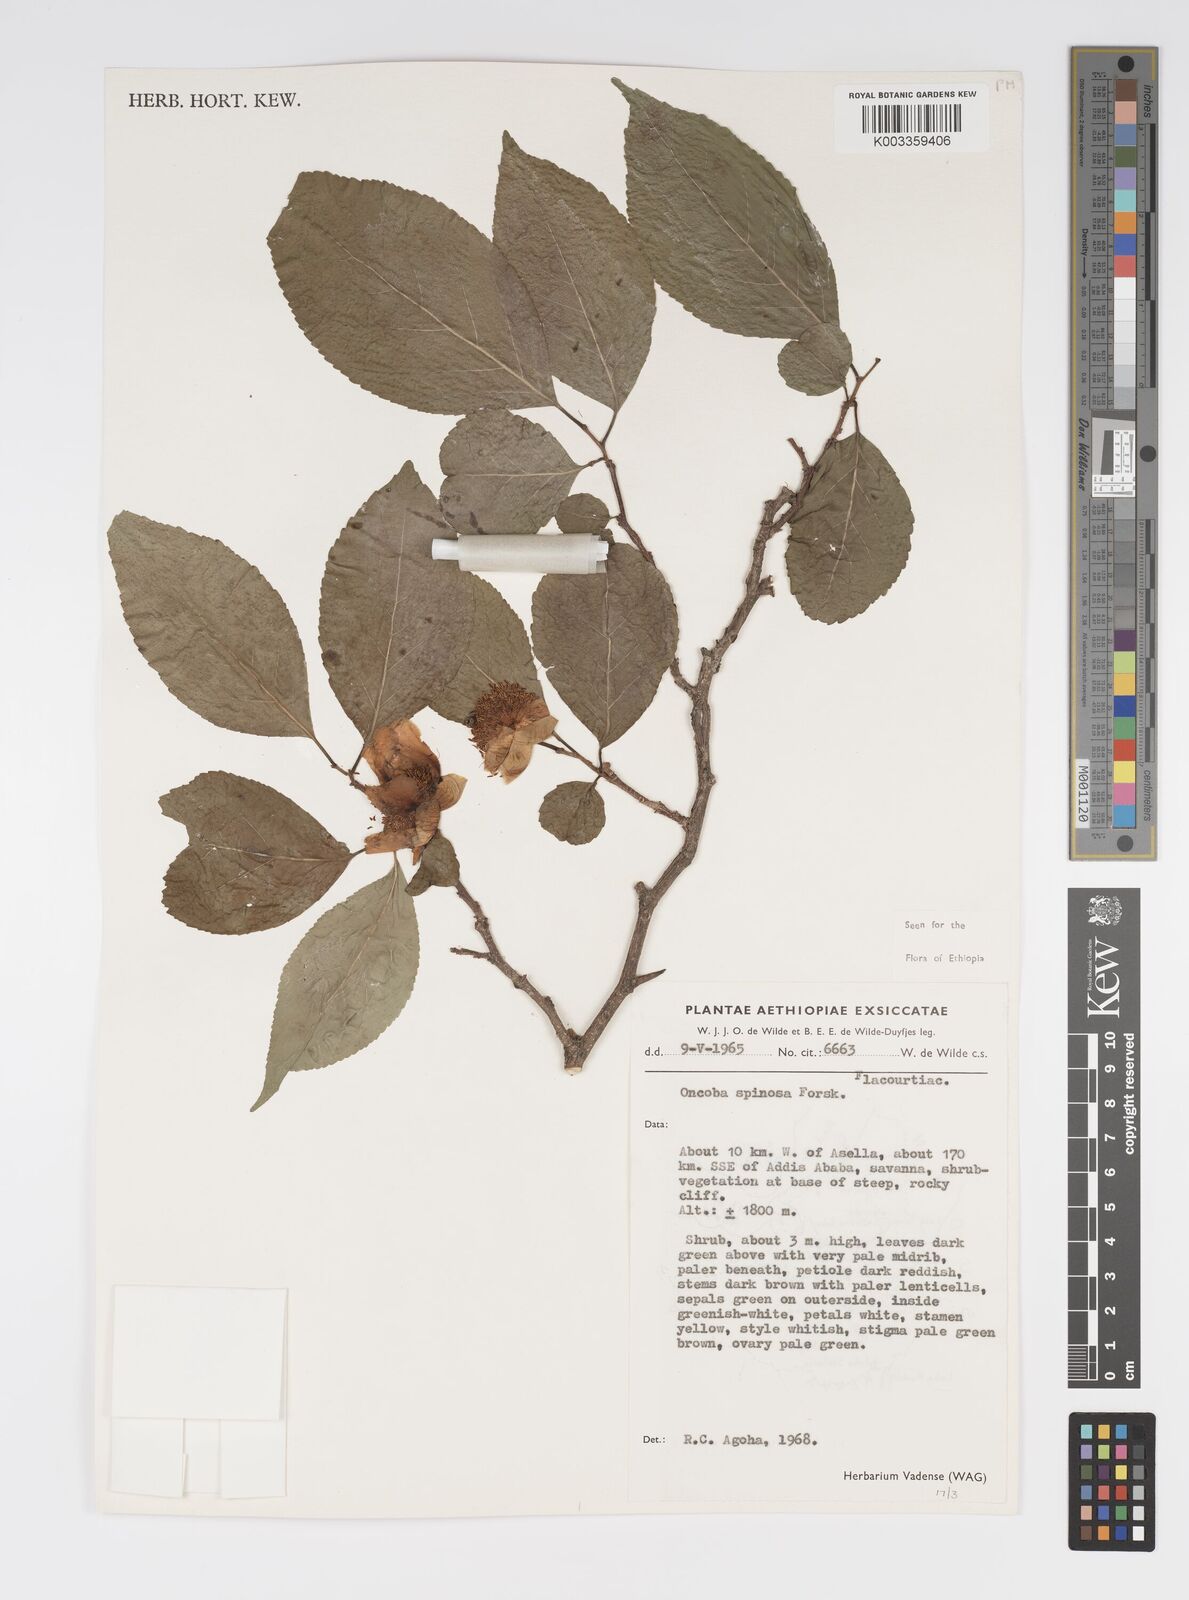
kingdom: Plantae
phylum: Tracheophyta
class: Magnoliopsida
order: Malpighiales
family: Salicaceae
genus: Oncoba
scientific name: Oncoba spinosa
